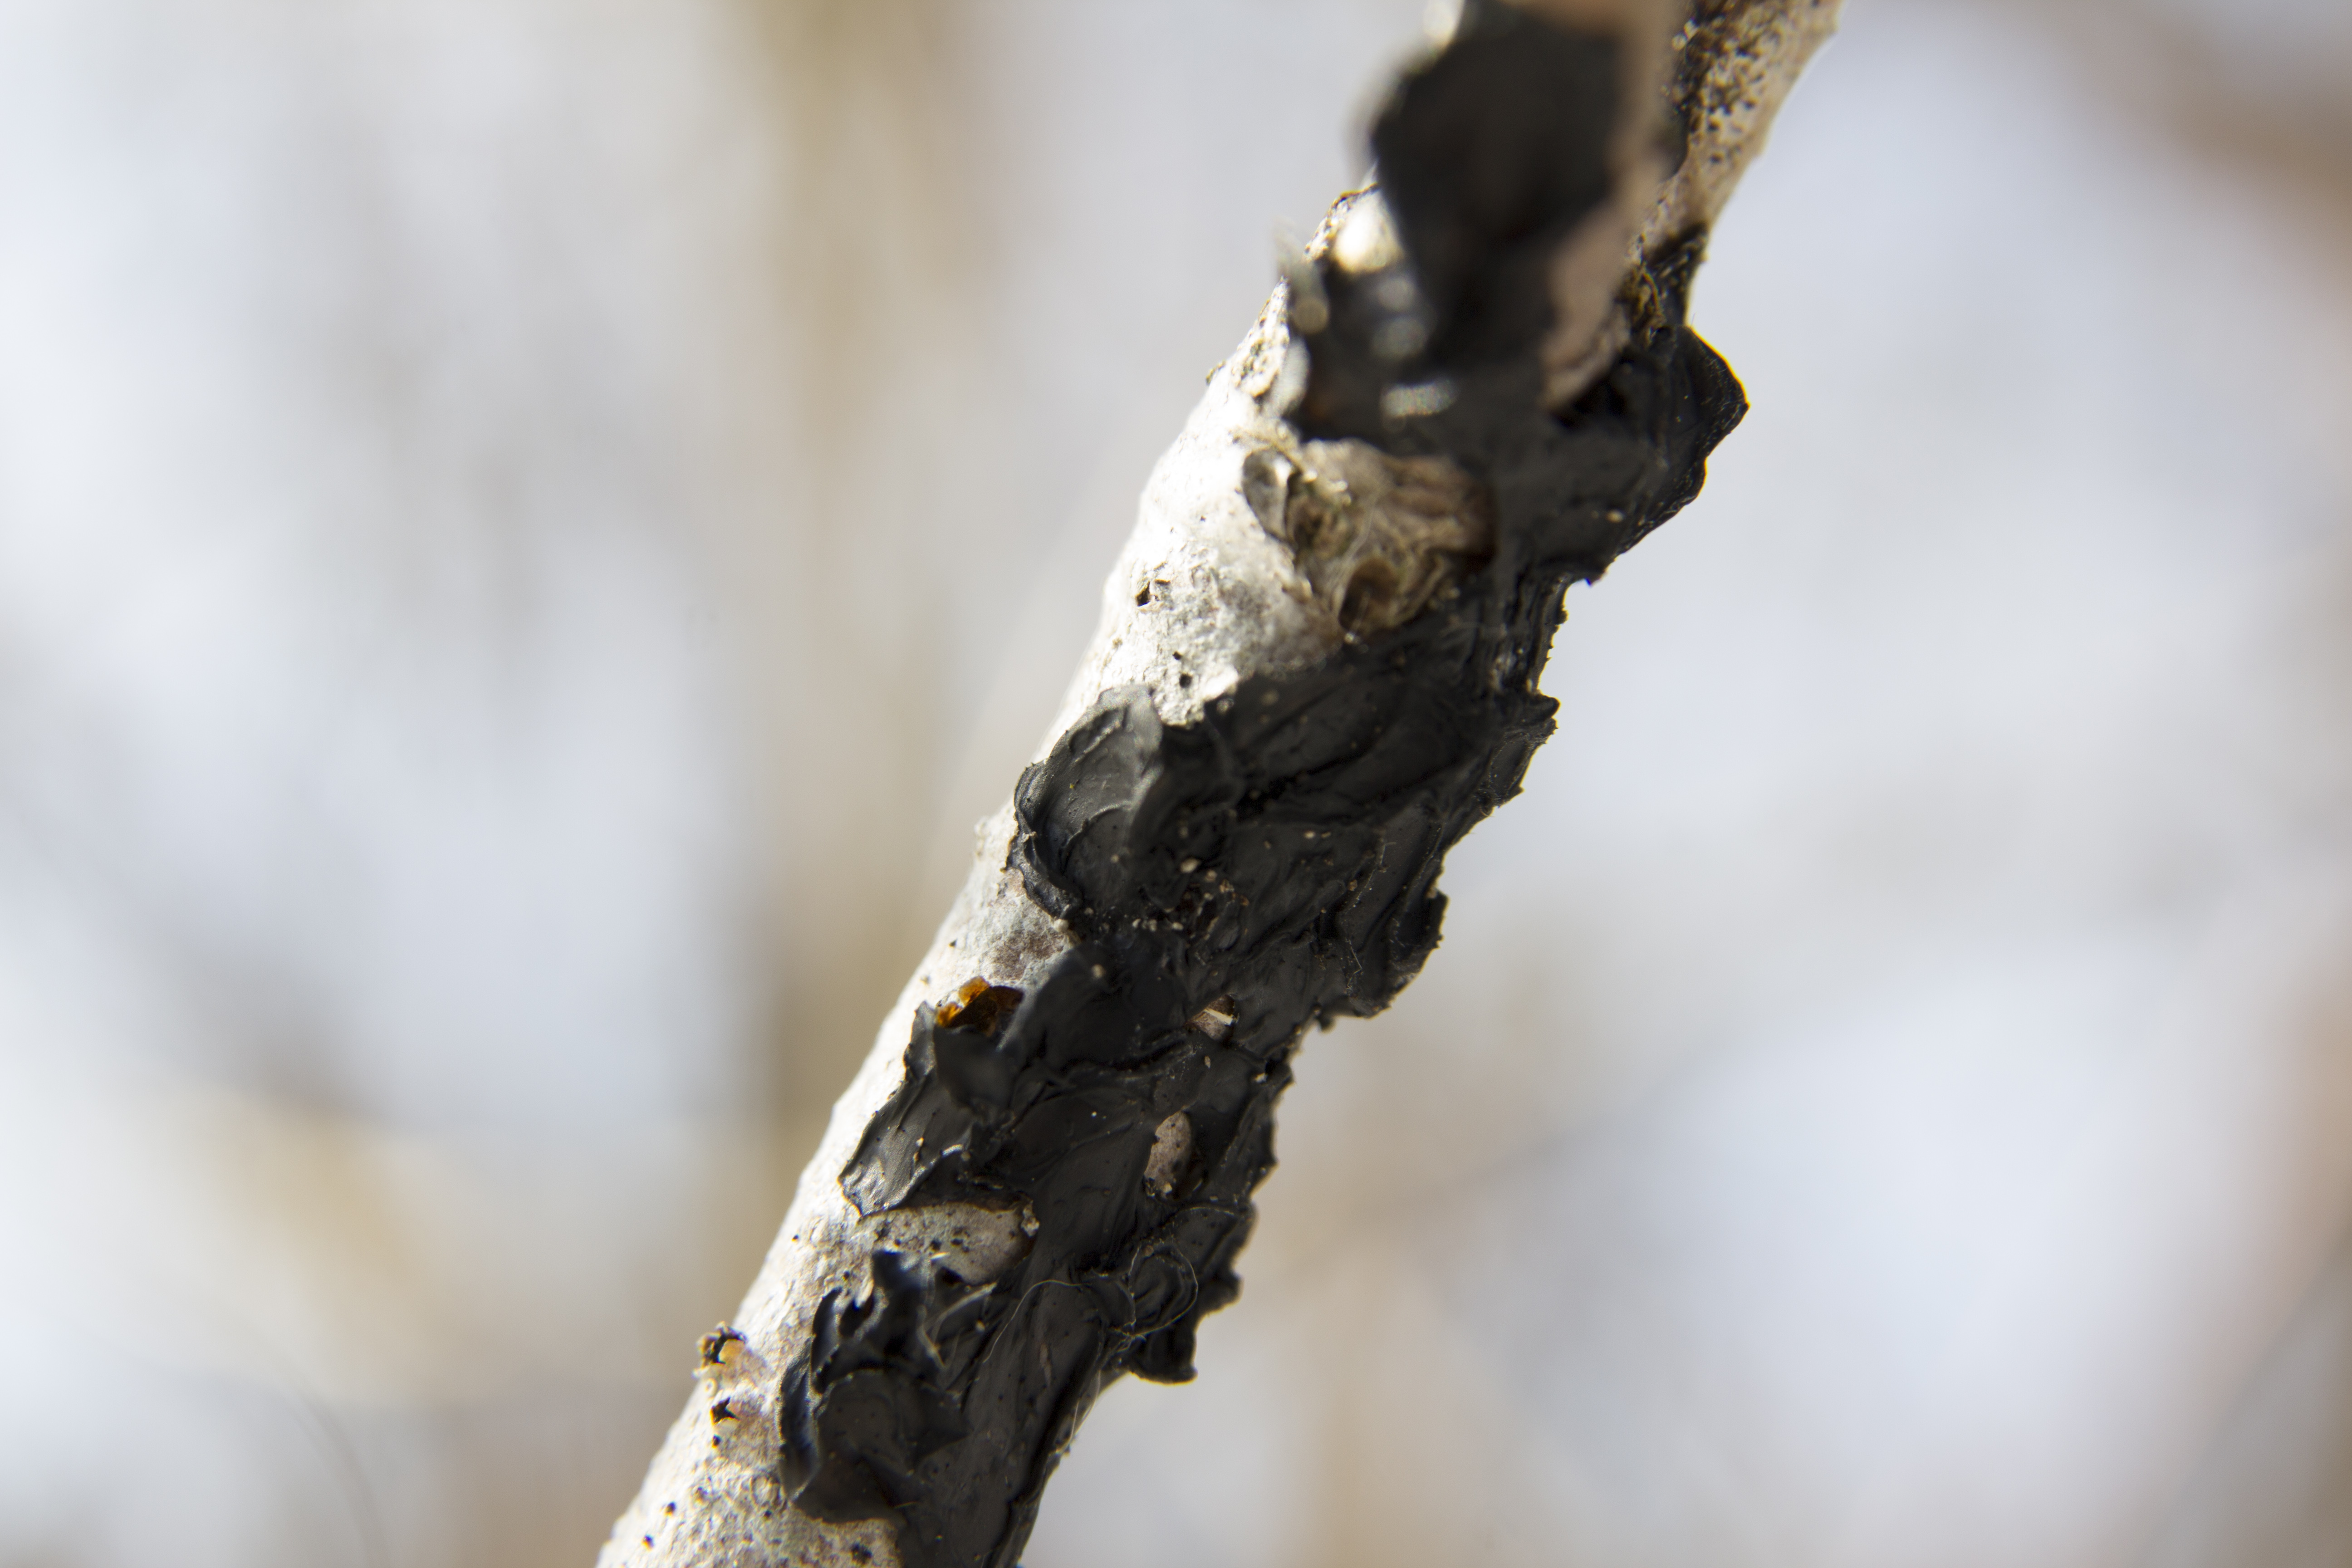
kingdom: Fungi
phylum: Basidiomycota
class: Agaricomycetes
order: Auriculariales
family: Auriculariaceae
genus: Exidia
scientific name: Exidia nigricans
